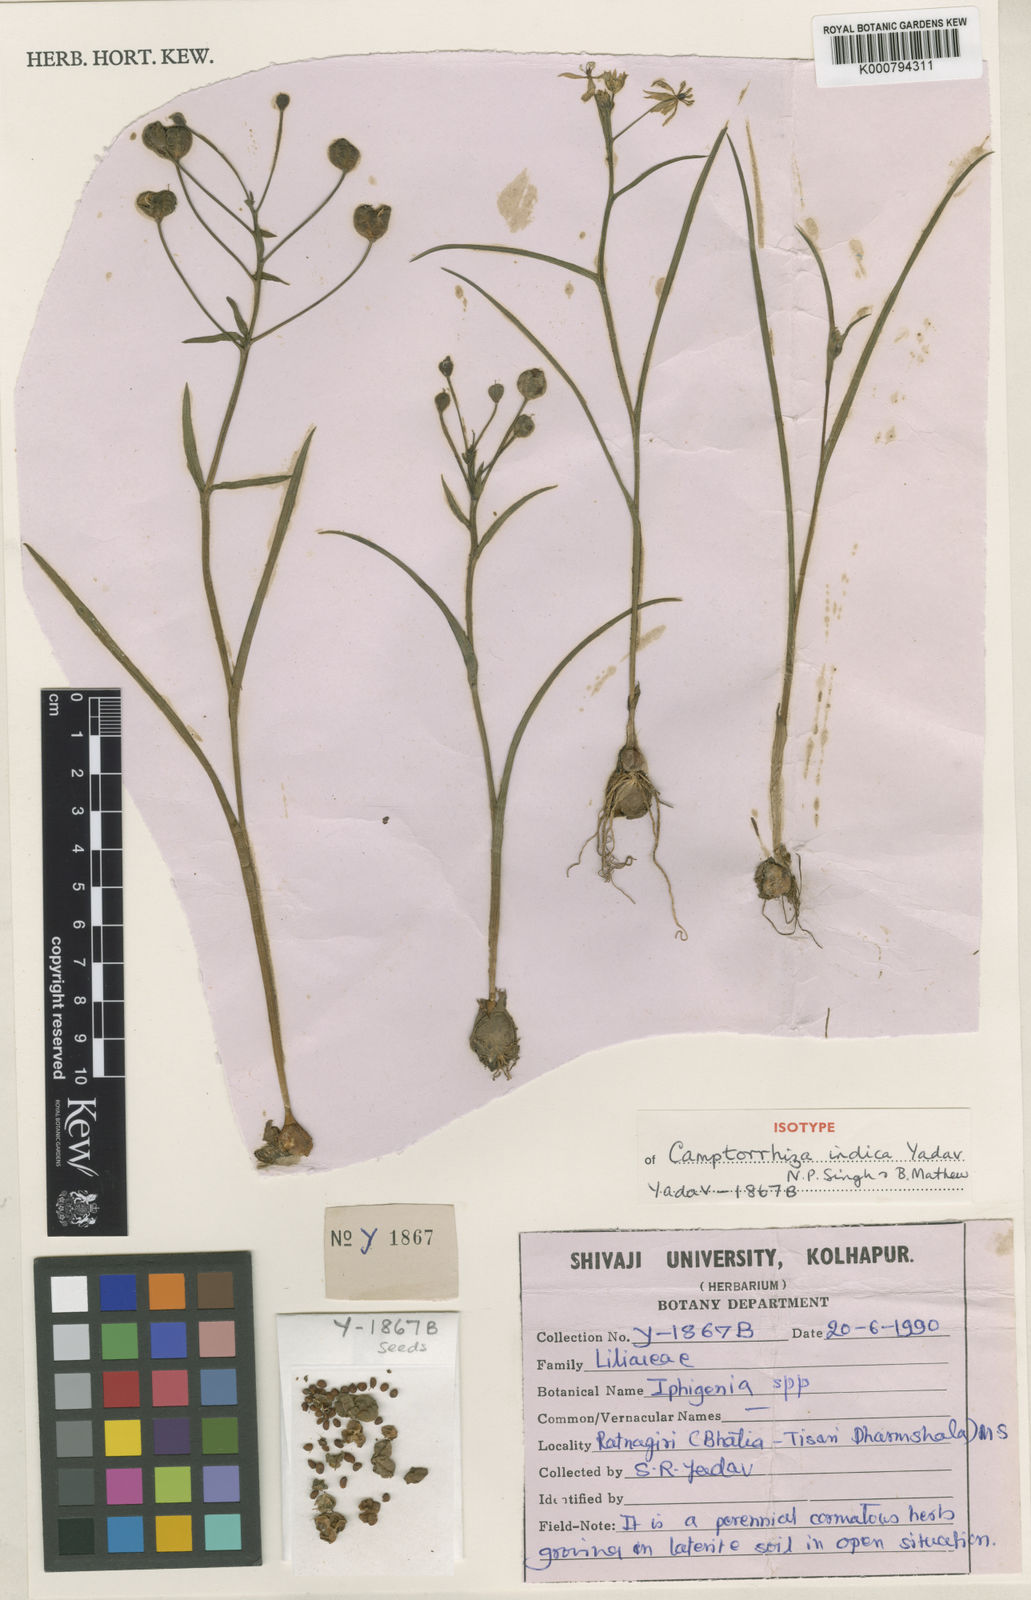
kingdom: Plantae
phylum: Tracheophyta
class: Liliopsida
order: Liliales
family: Colchicaceae
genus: Iphigenia
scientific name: Iphigenia ratnagirica
